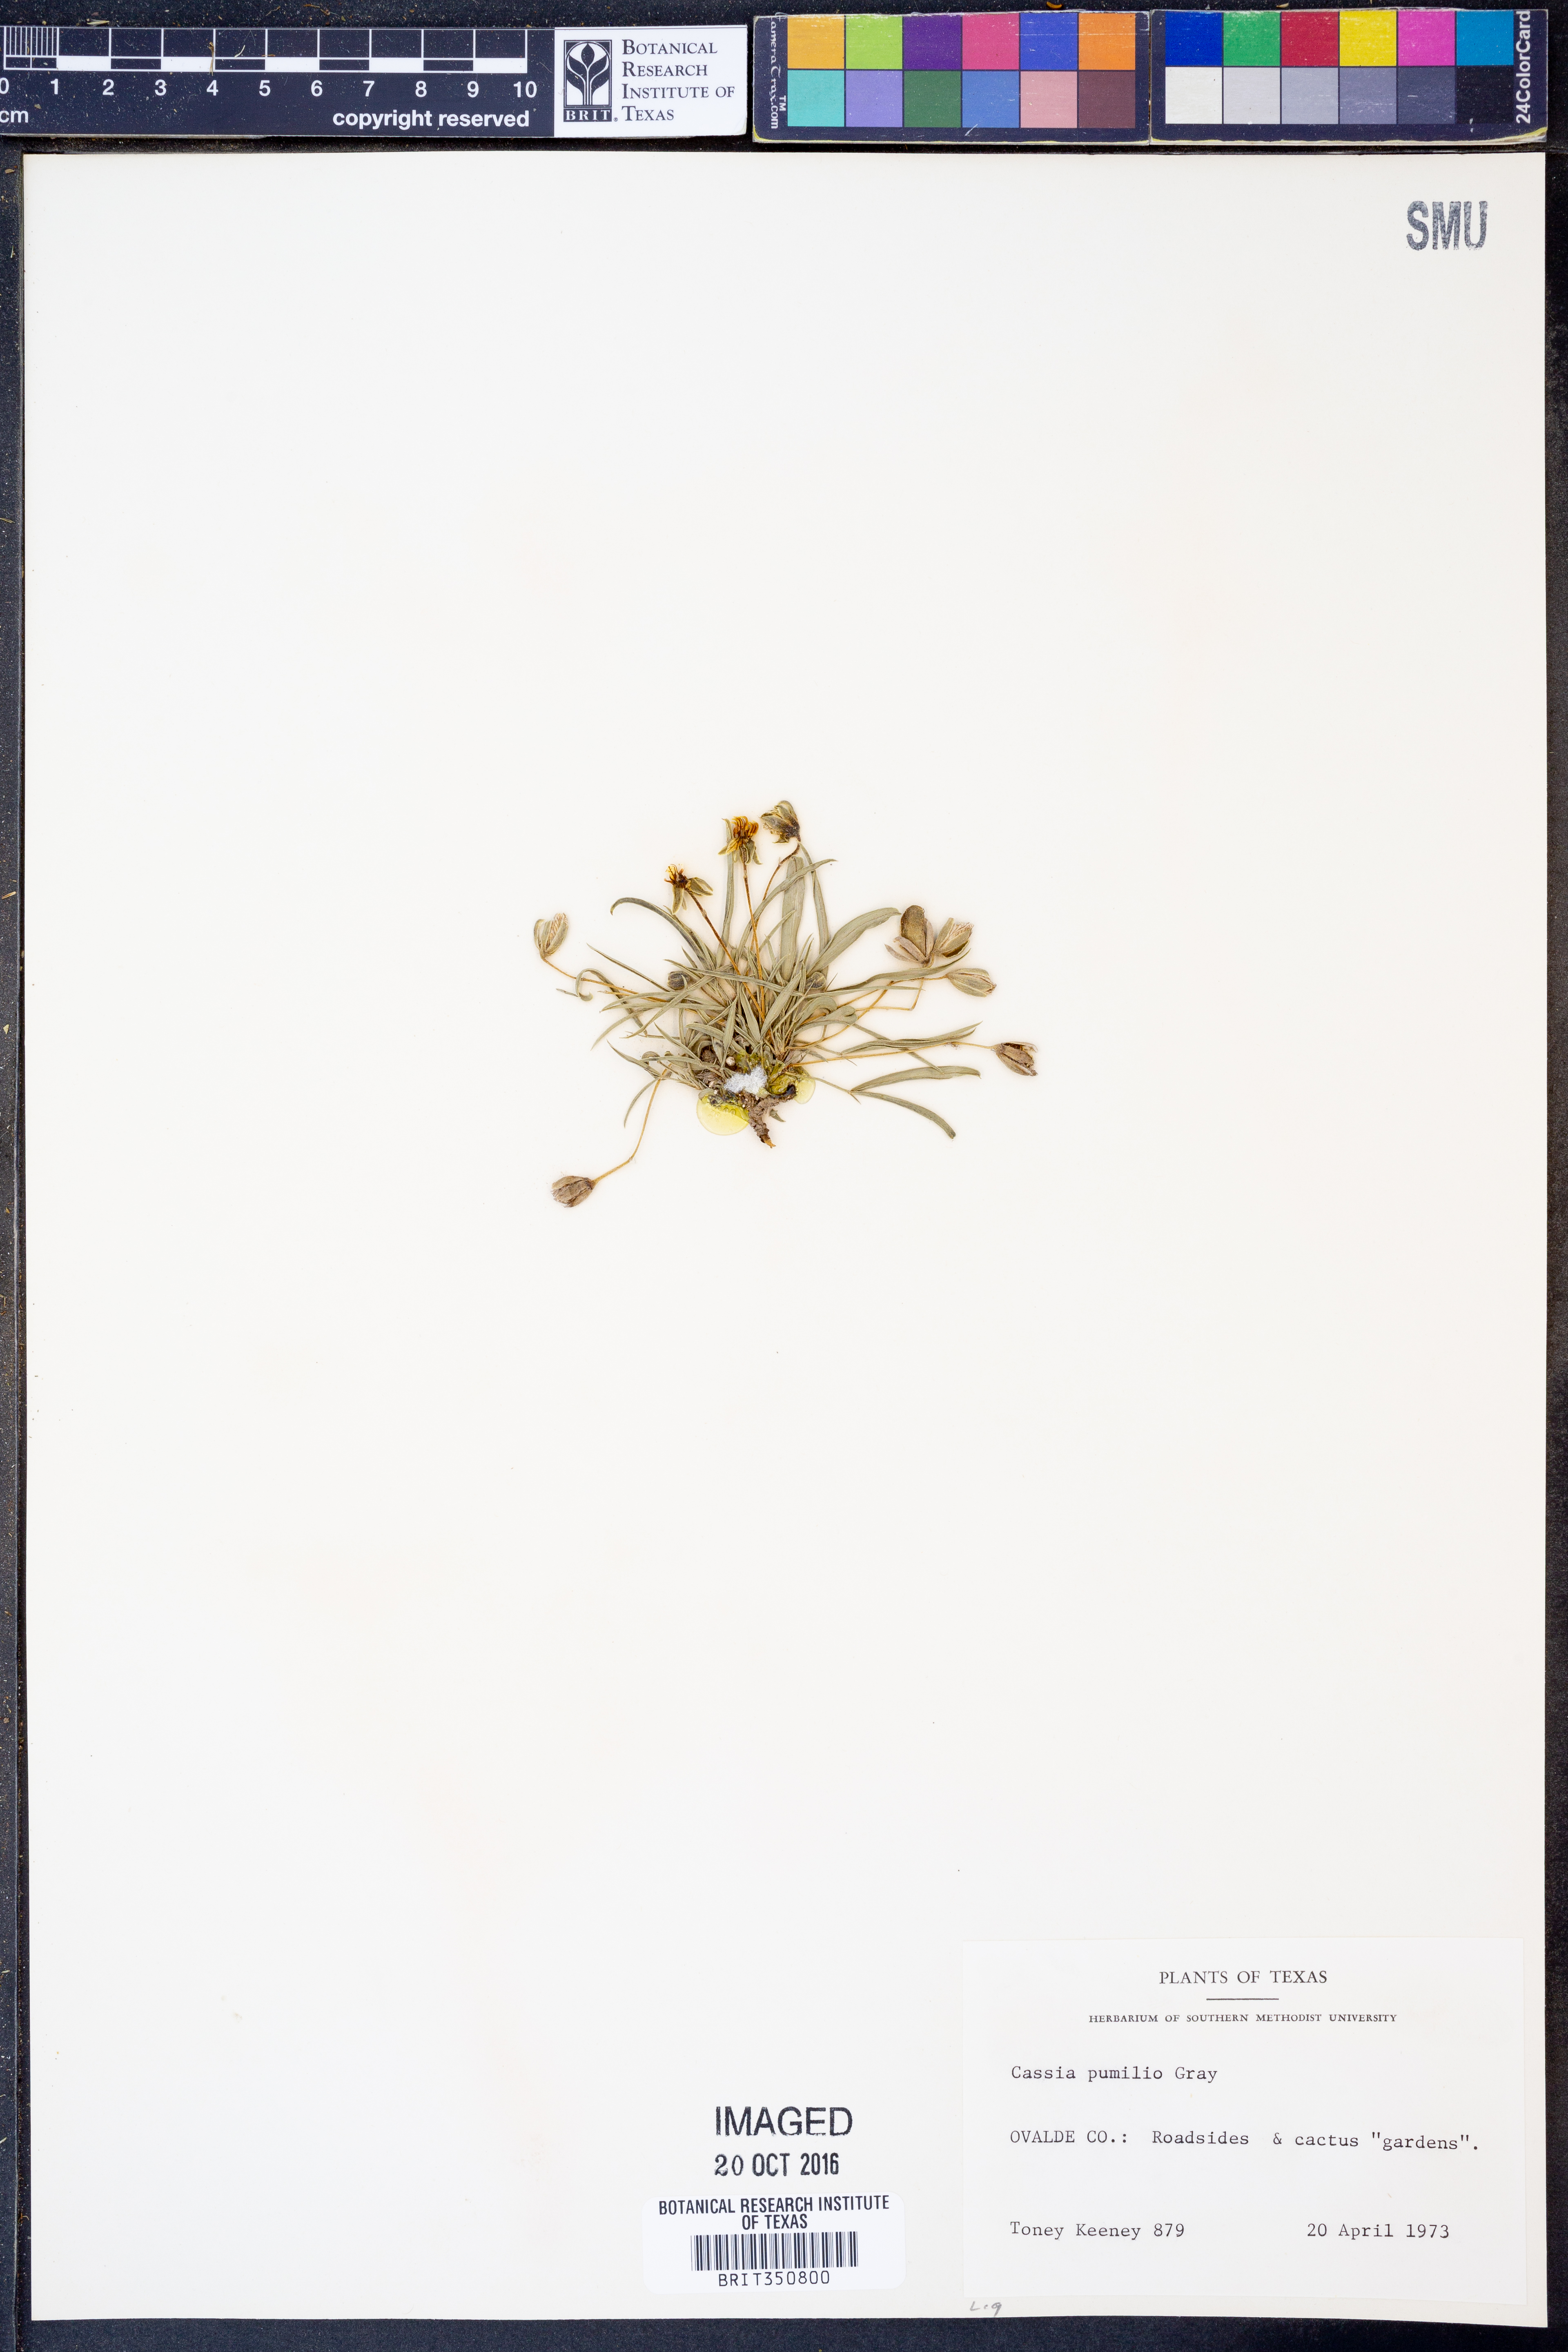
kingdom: Plantae
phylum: Tracheophyta
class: Magnoliopsida
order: Fabales
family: Fabaceae
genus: Senna
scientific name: Senna pumilio
